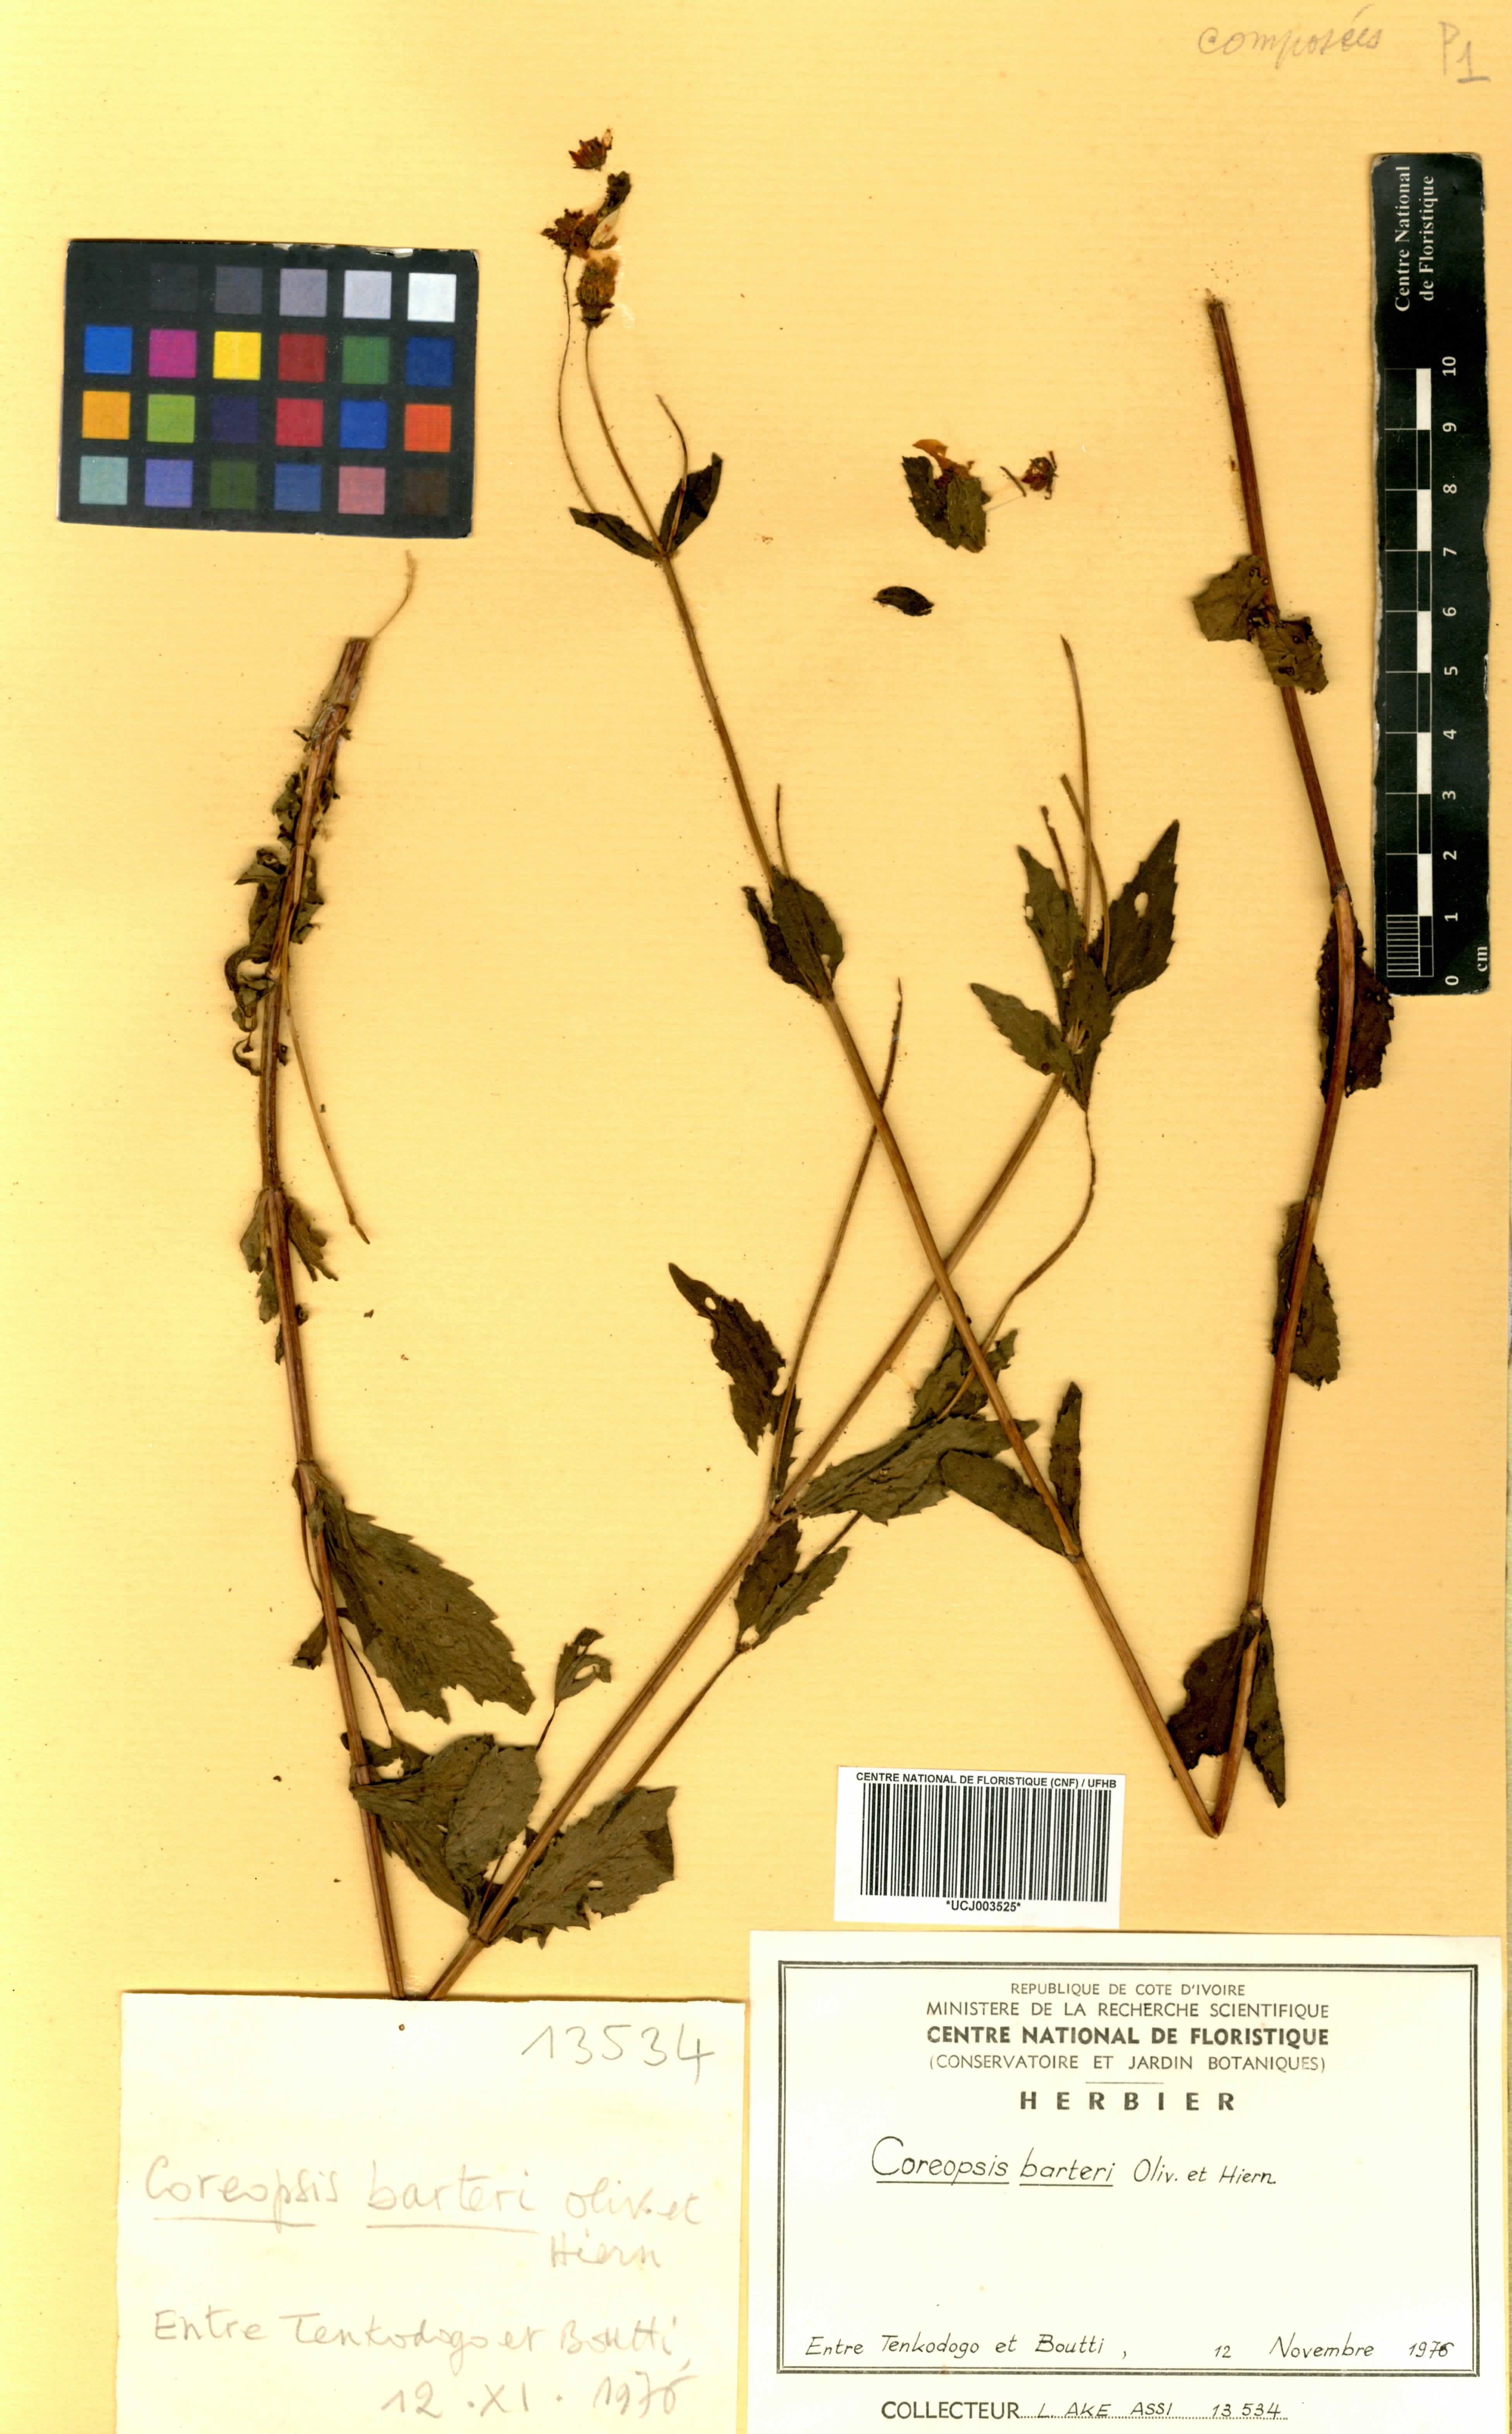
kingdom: Plantae
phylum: Tracheophyta
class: Magnoliopsida
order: Asterales
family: Asteraceae
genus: Bidens
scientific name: Bidens barteri
